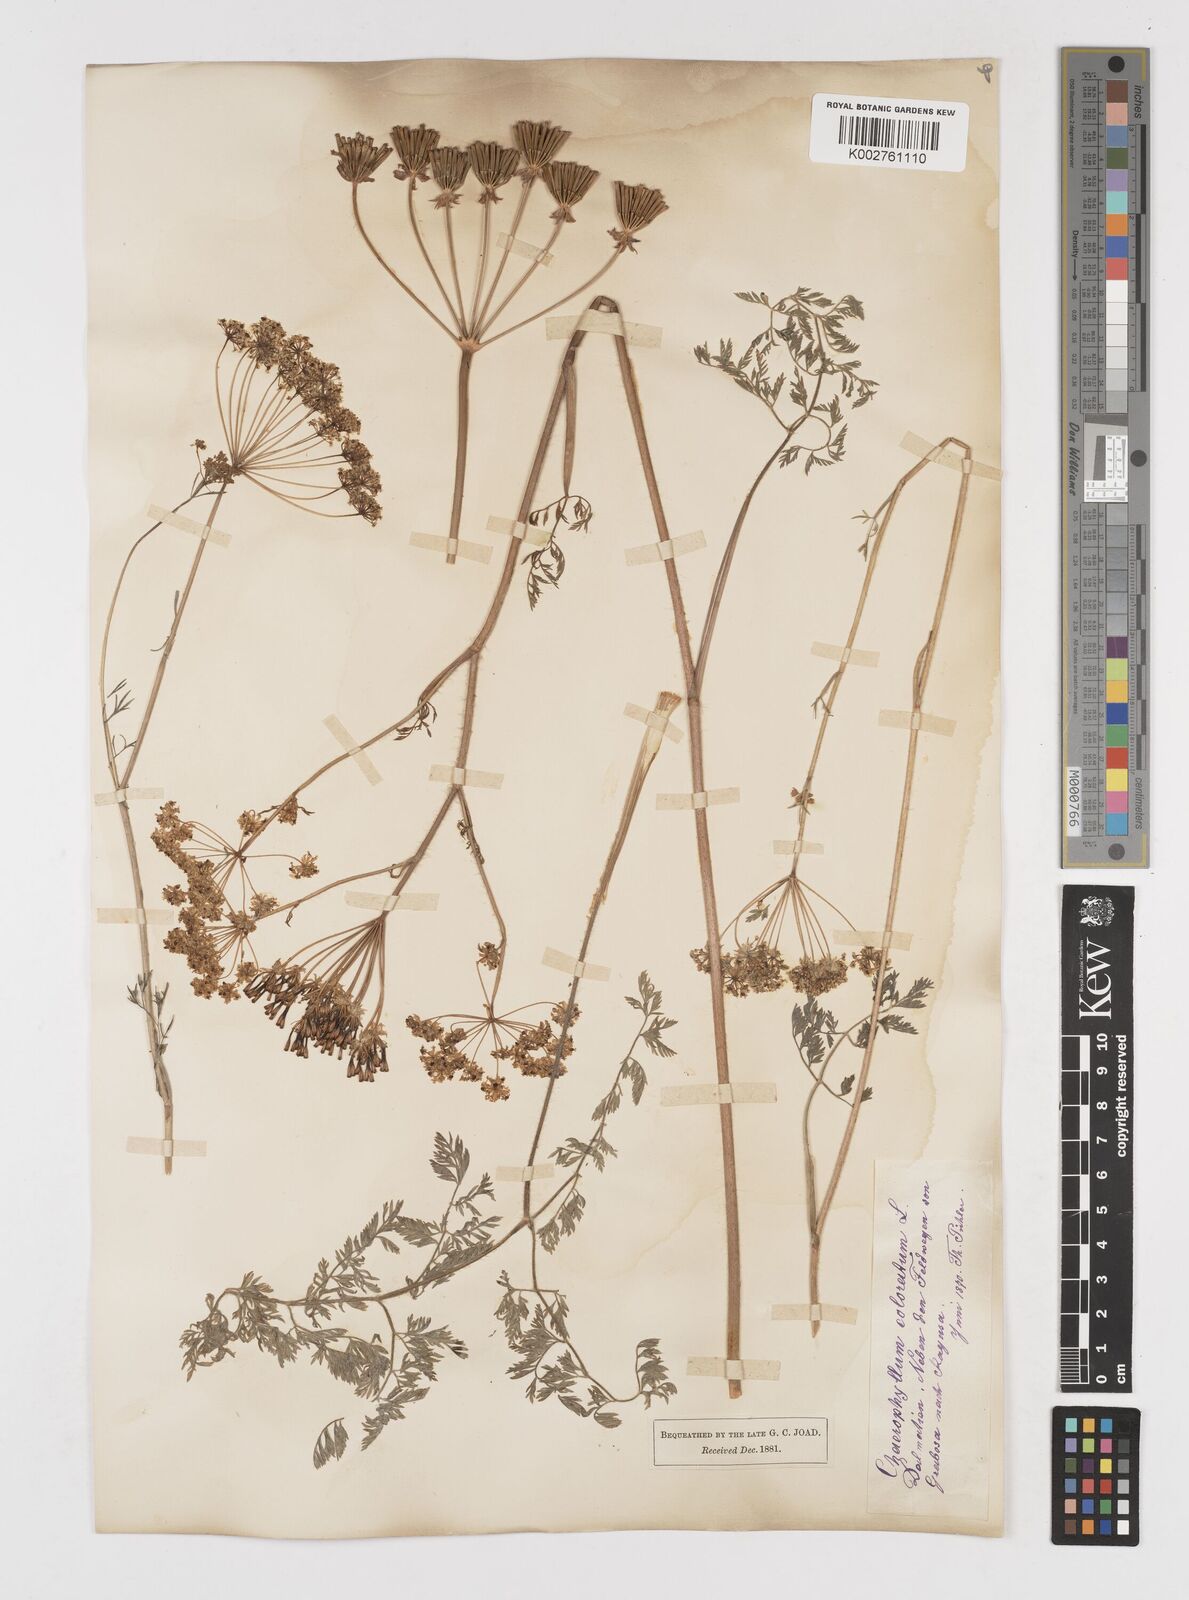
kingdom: Plantae
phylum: Tracheophyta
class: Magnoliopsida
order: Apiales
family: Apiaceae
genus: Chaerophyllum
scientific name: Chaerophyllum coloratum
